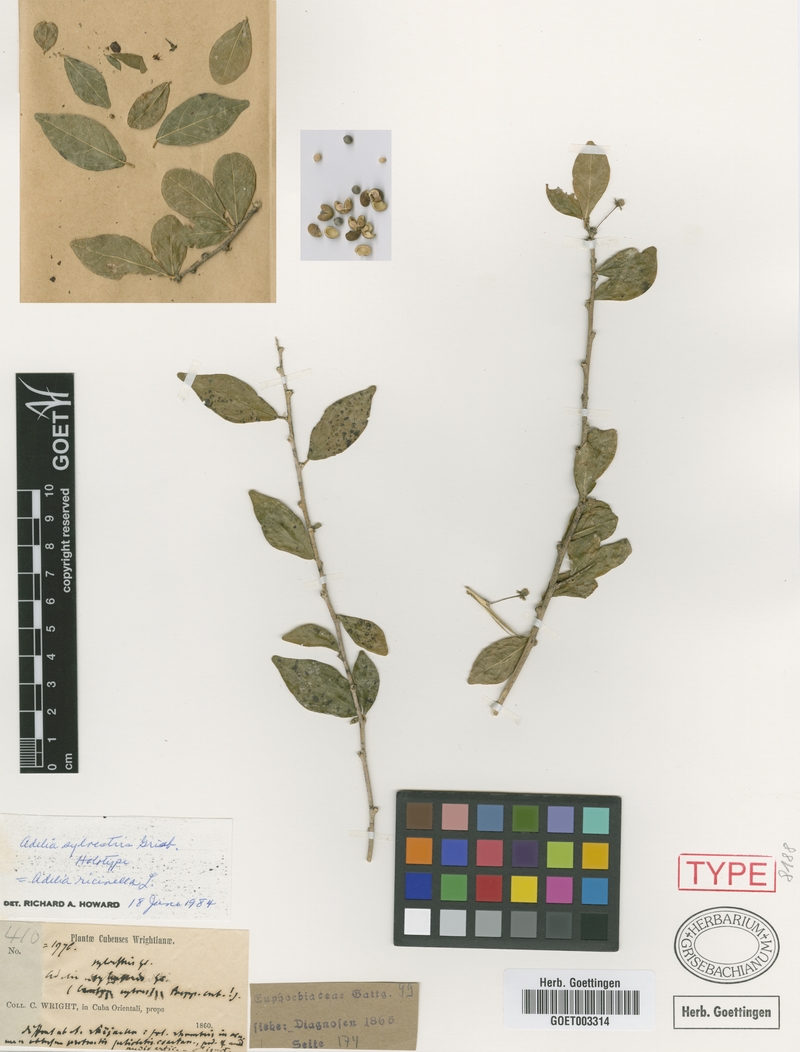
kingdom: Plantae
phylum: Tracheophyta
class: Magnoliopsida
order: Malpighiales
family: Euphorbiaceae
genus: Adelia
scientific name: Adelia ricinella
